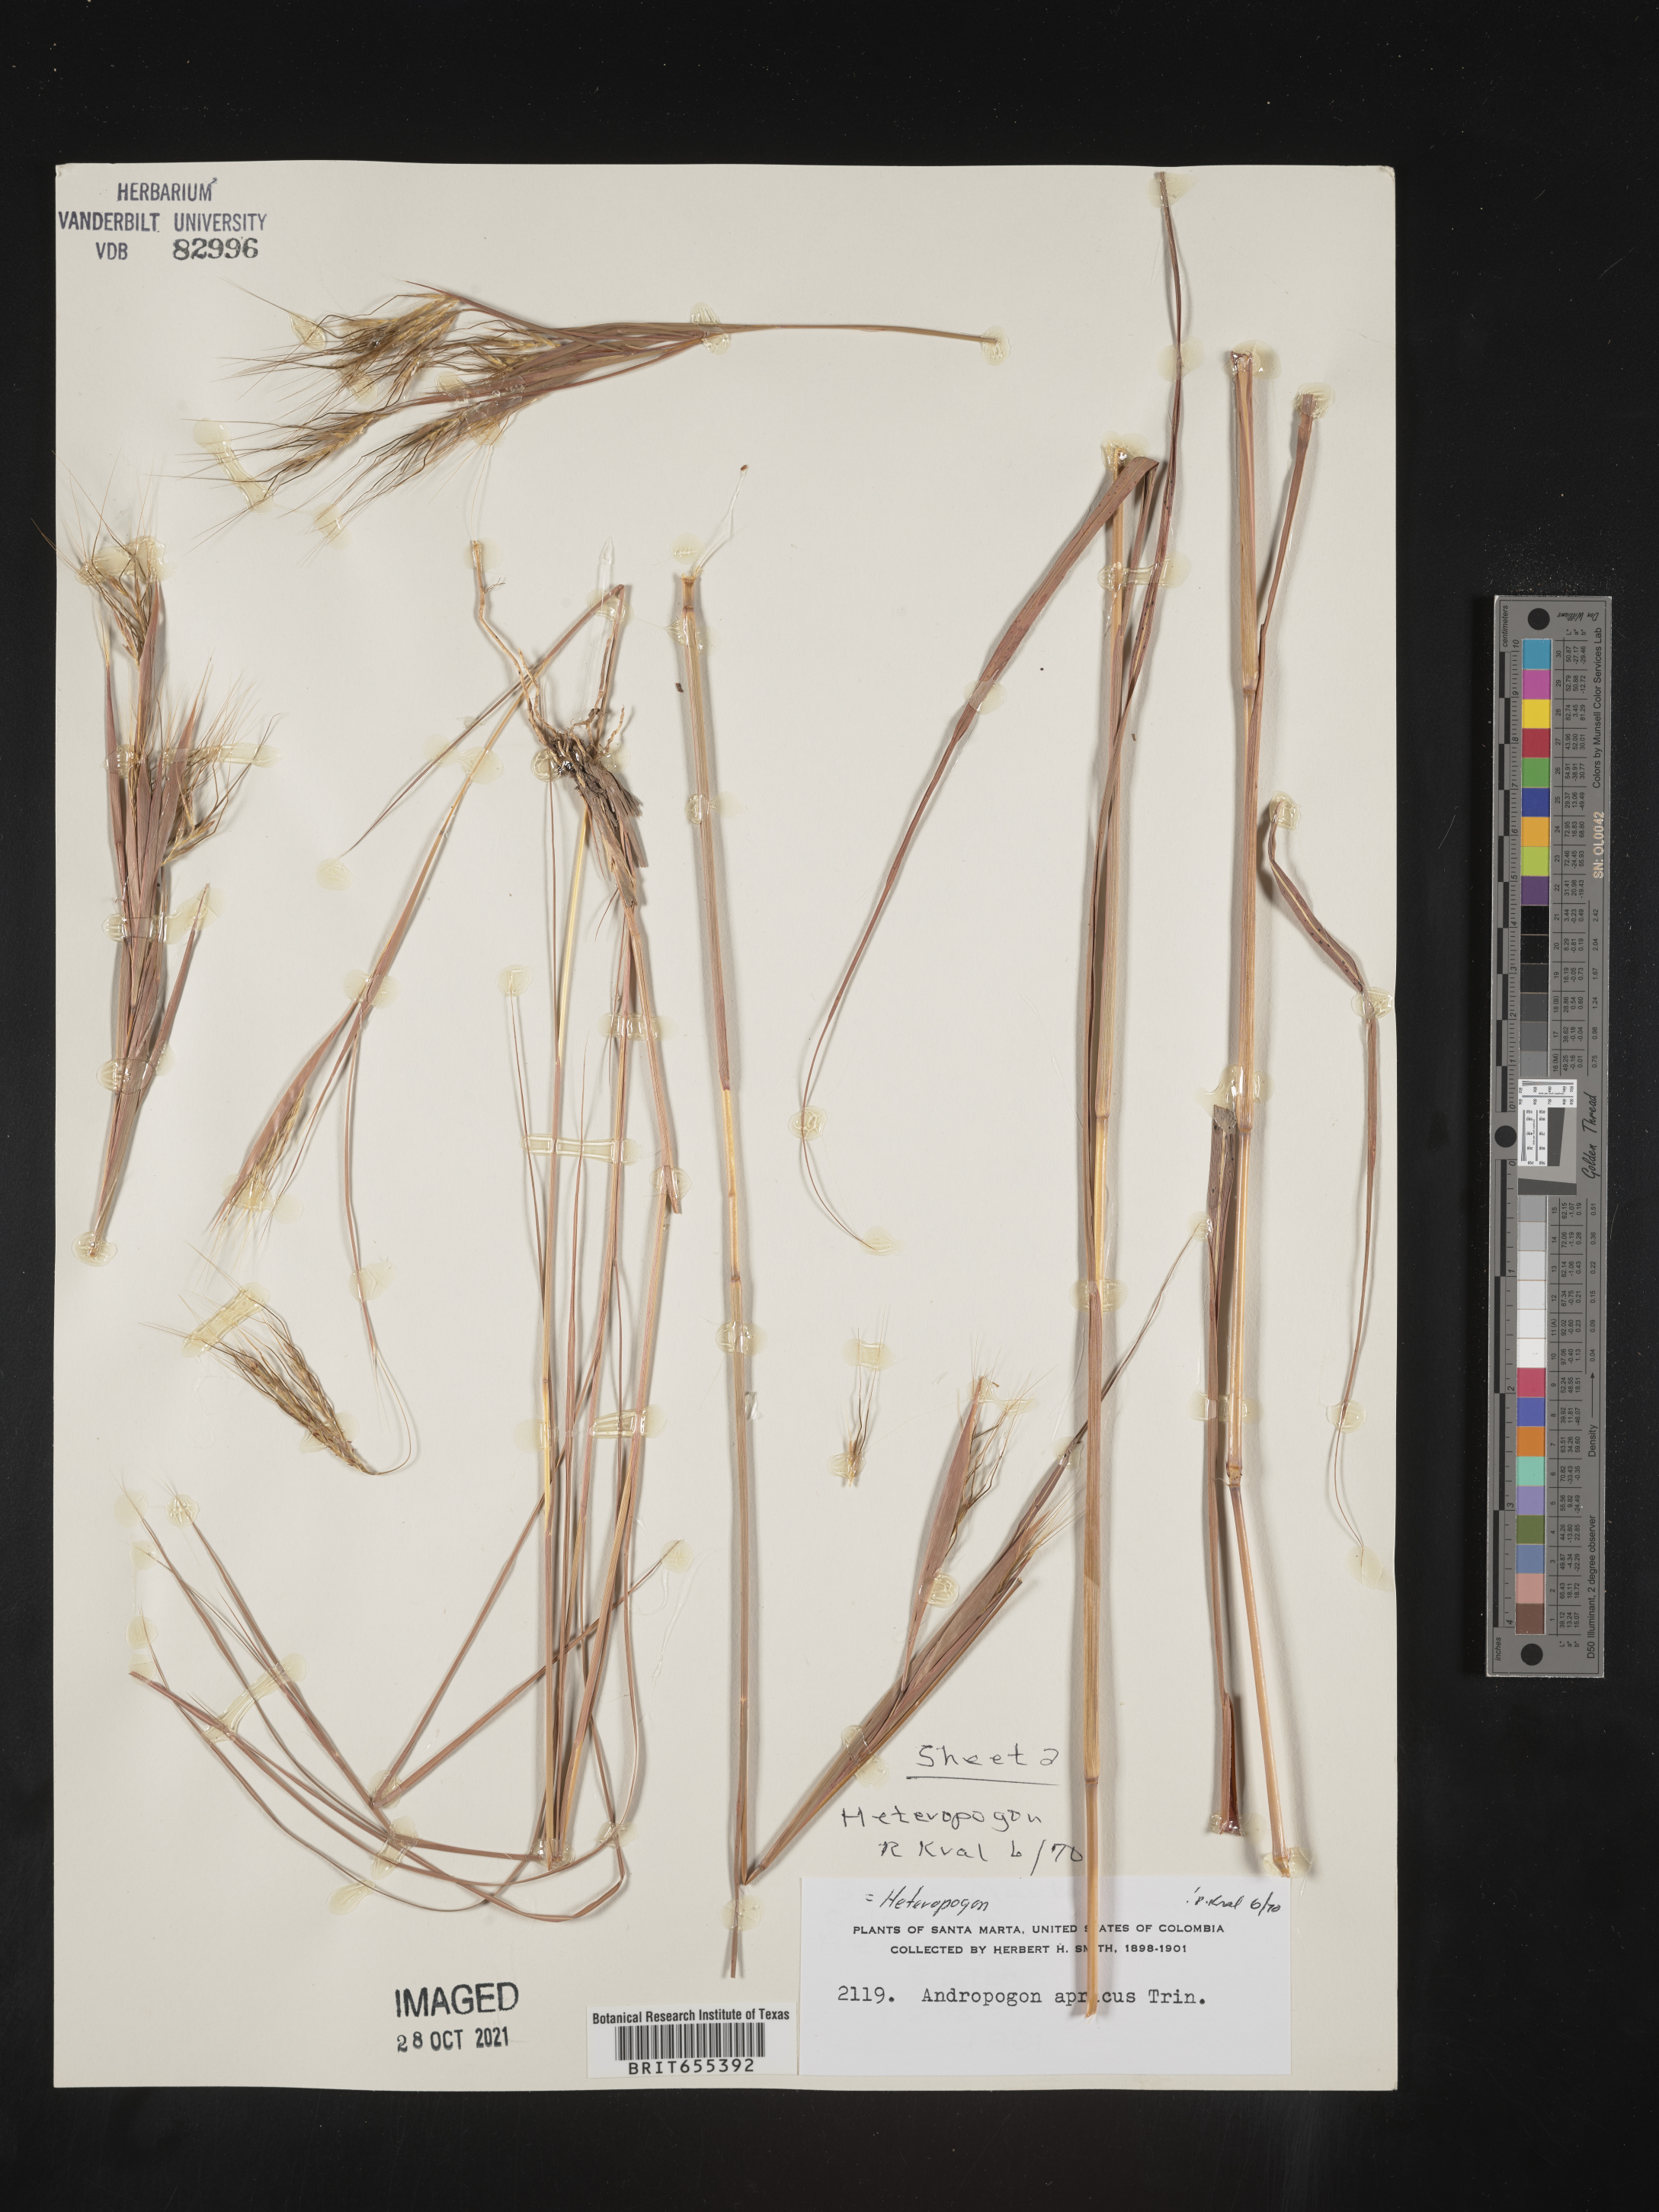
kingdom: Plantae
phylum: Tracheophyta
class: Liliopsida
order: Poales
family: Poaceae
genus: Heteropogon
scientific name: Heteropogon
